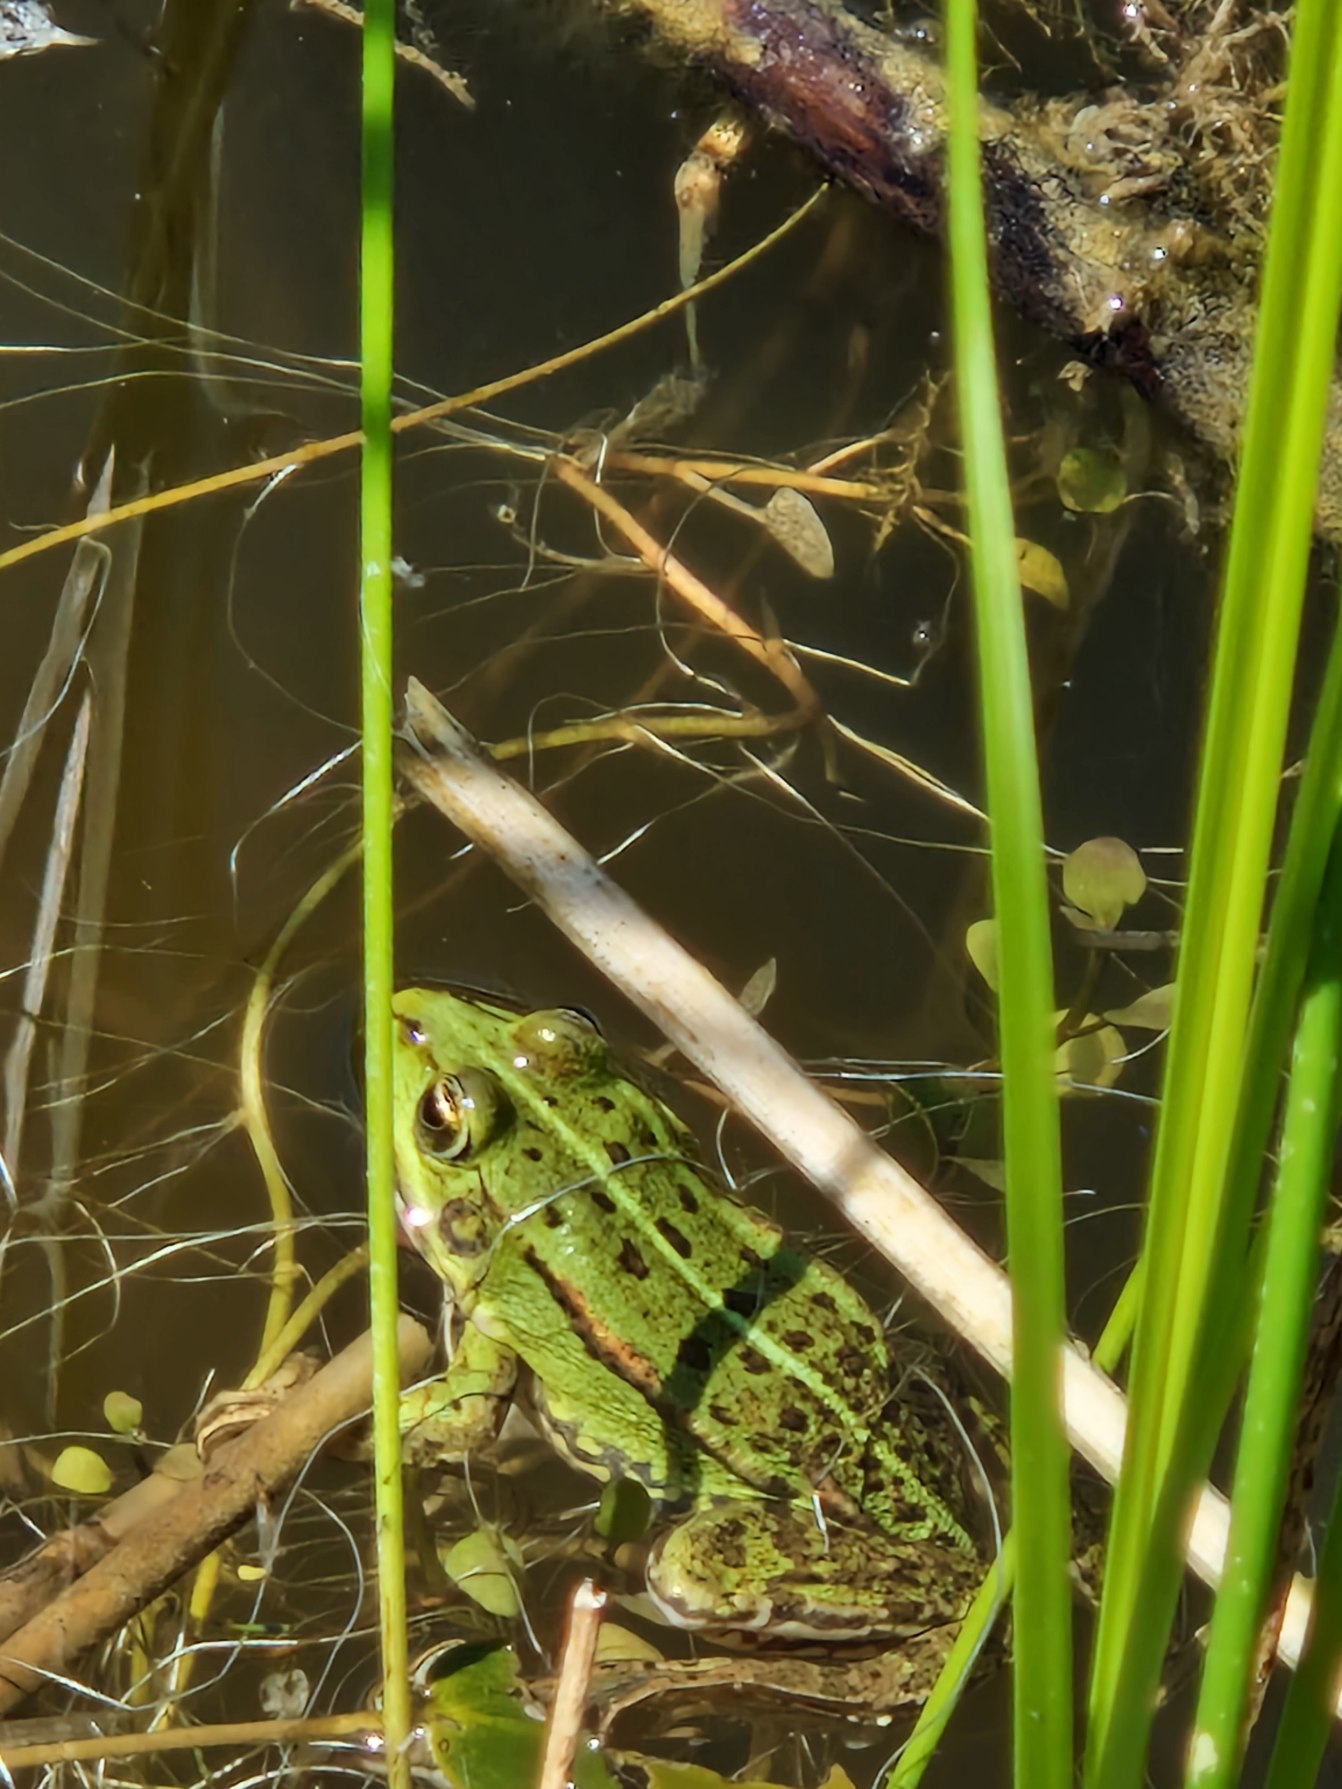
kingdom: Animalia
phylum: Chordata
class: Amphibia
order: Anura
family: Ranidae
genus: Pelophylax
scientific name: Pelophylax lessonae
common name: Grøn frø
